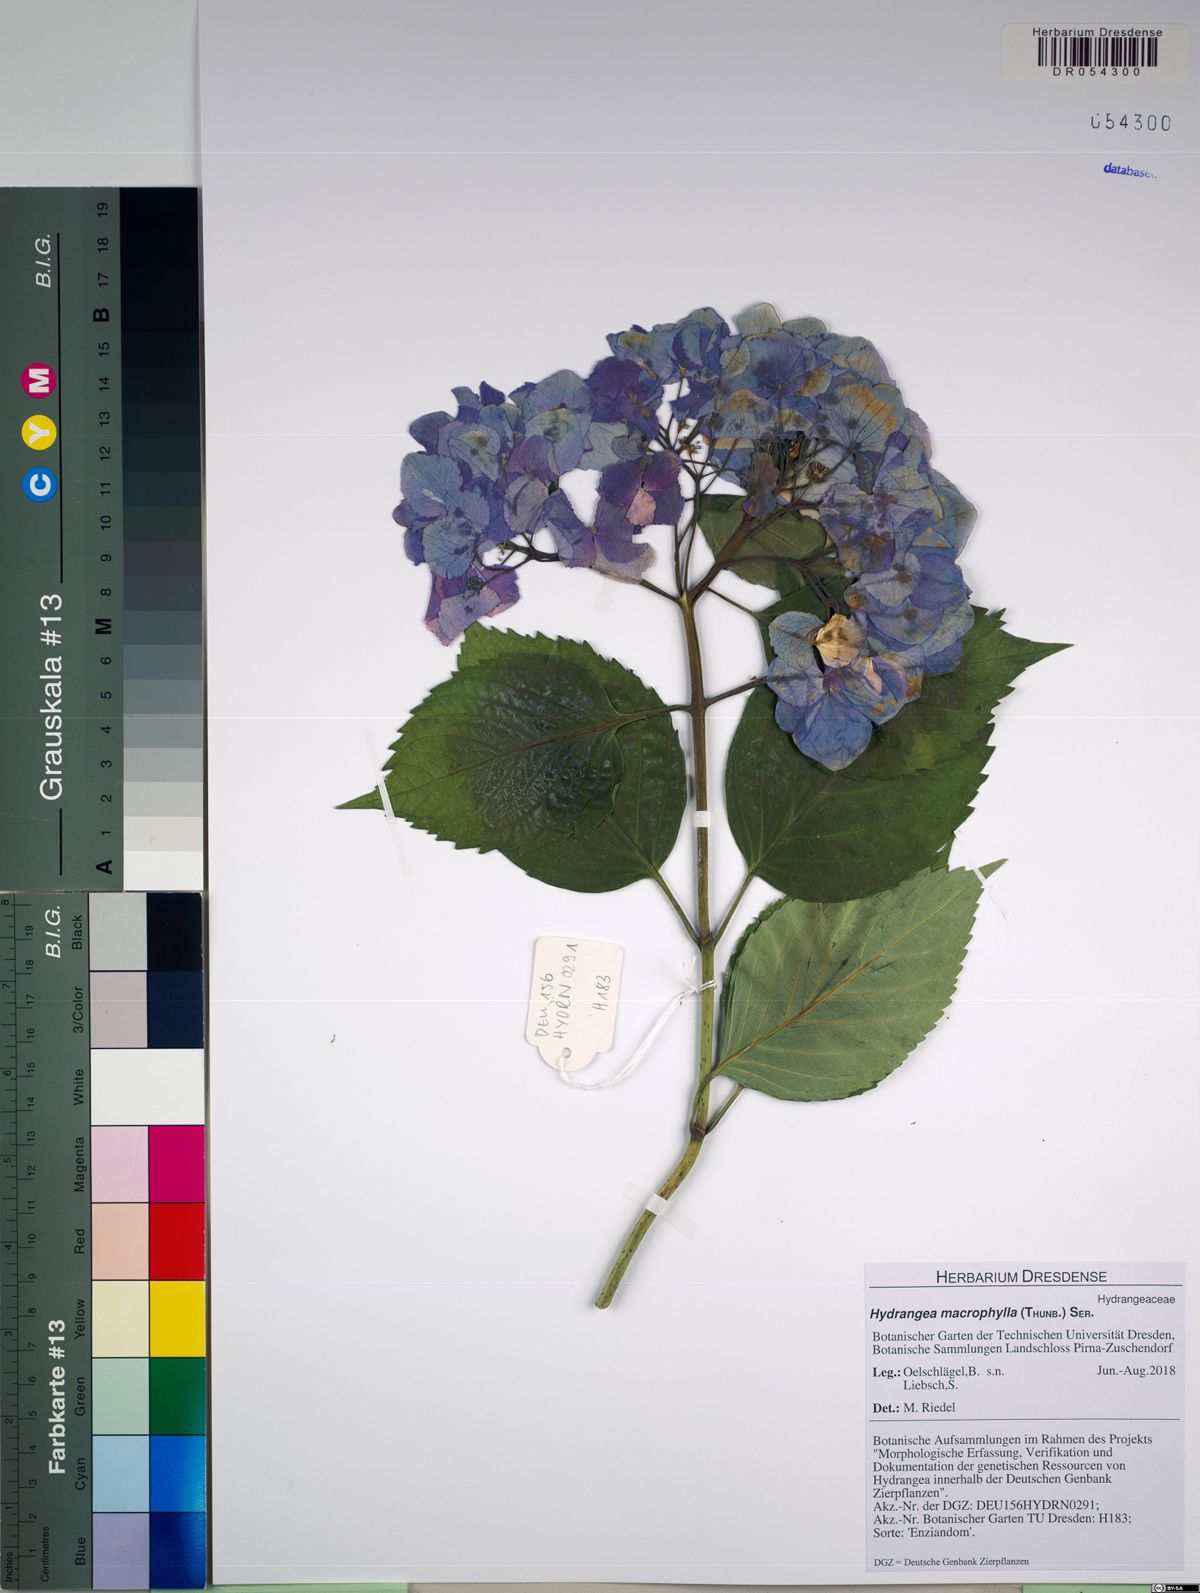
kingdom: Plantae
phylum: Tracheophyta
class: Magnoliopsida
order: Cornales
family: Hydrangeaceae
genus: Hydrangea
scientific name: Hydrangea macrophylla
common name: Hydrangea
